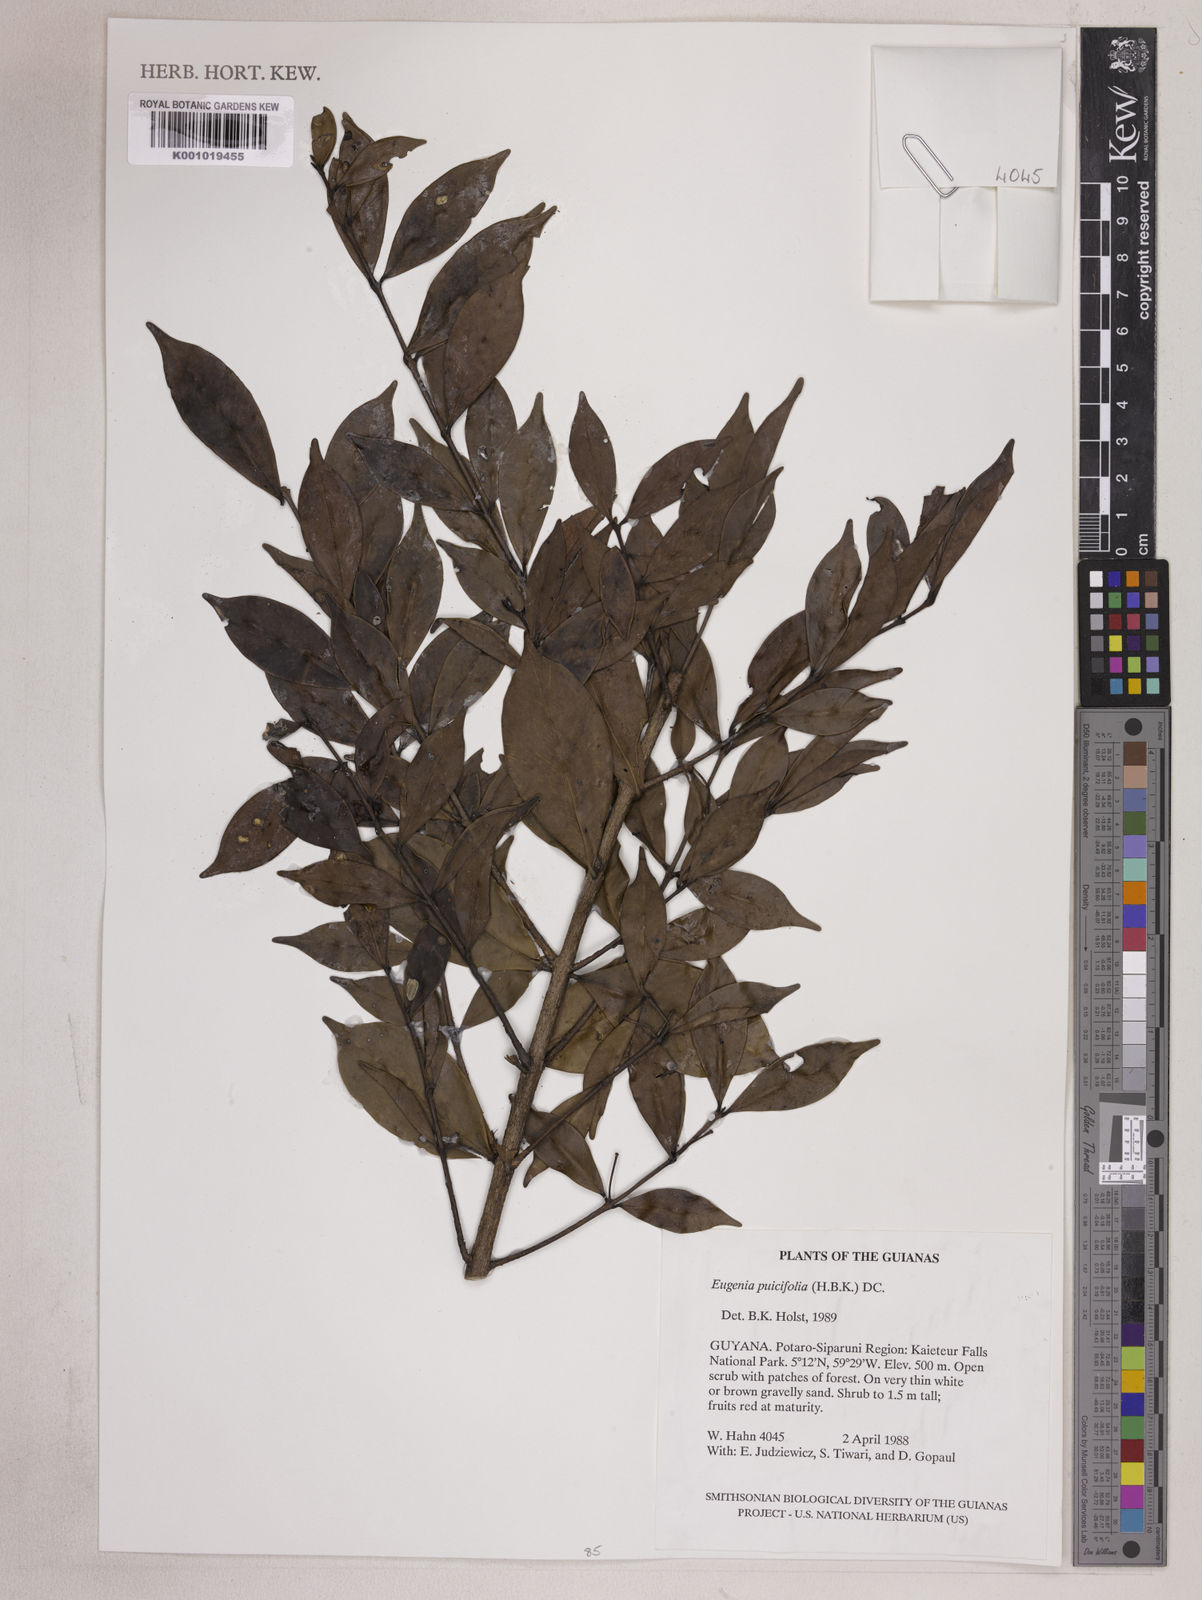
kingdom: Plantae
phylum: Tracheophyta
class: Magnoliopsida
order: Myrtales
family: Myrtaceae
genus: Eugenia
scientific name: Eugenia punicifolia
